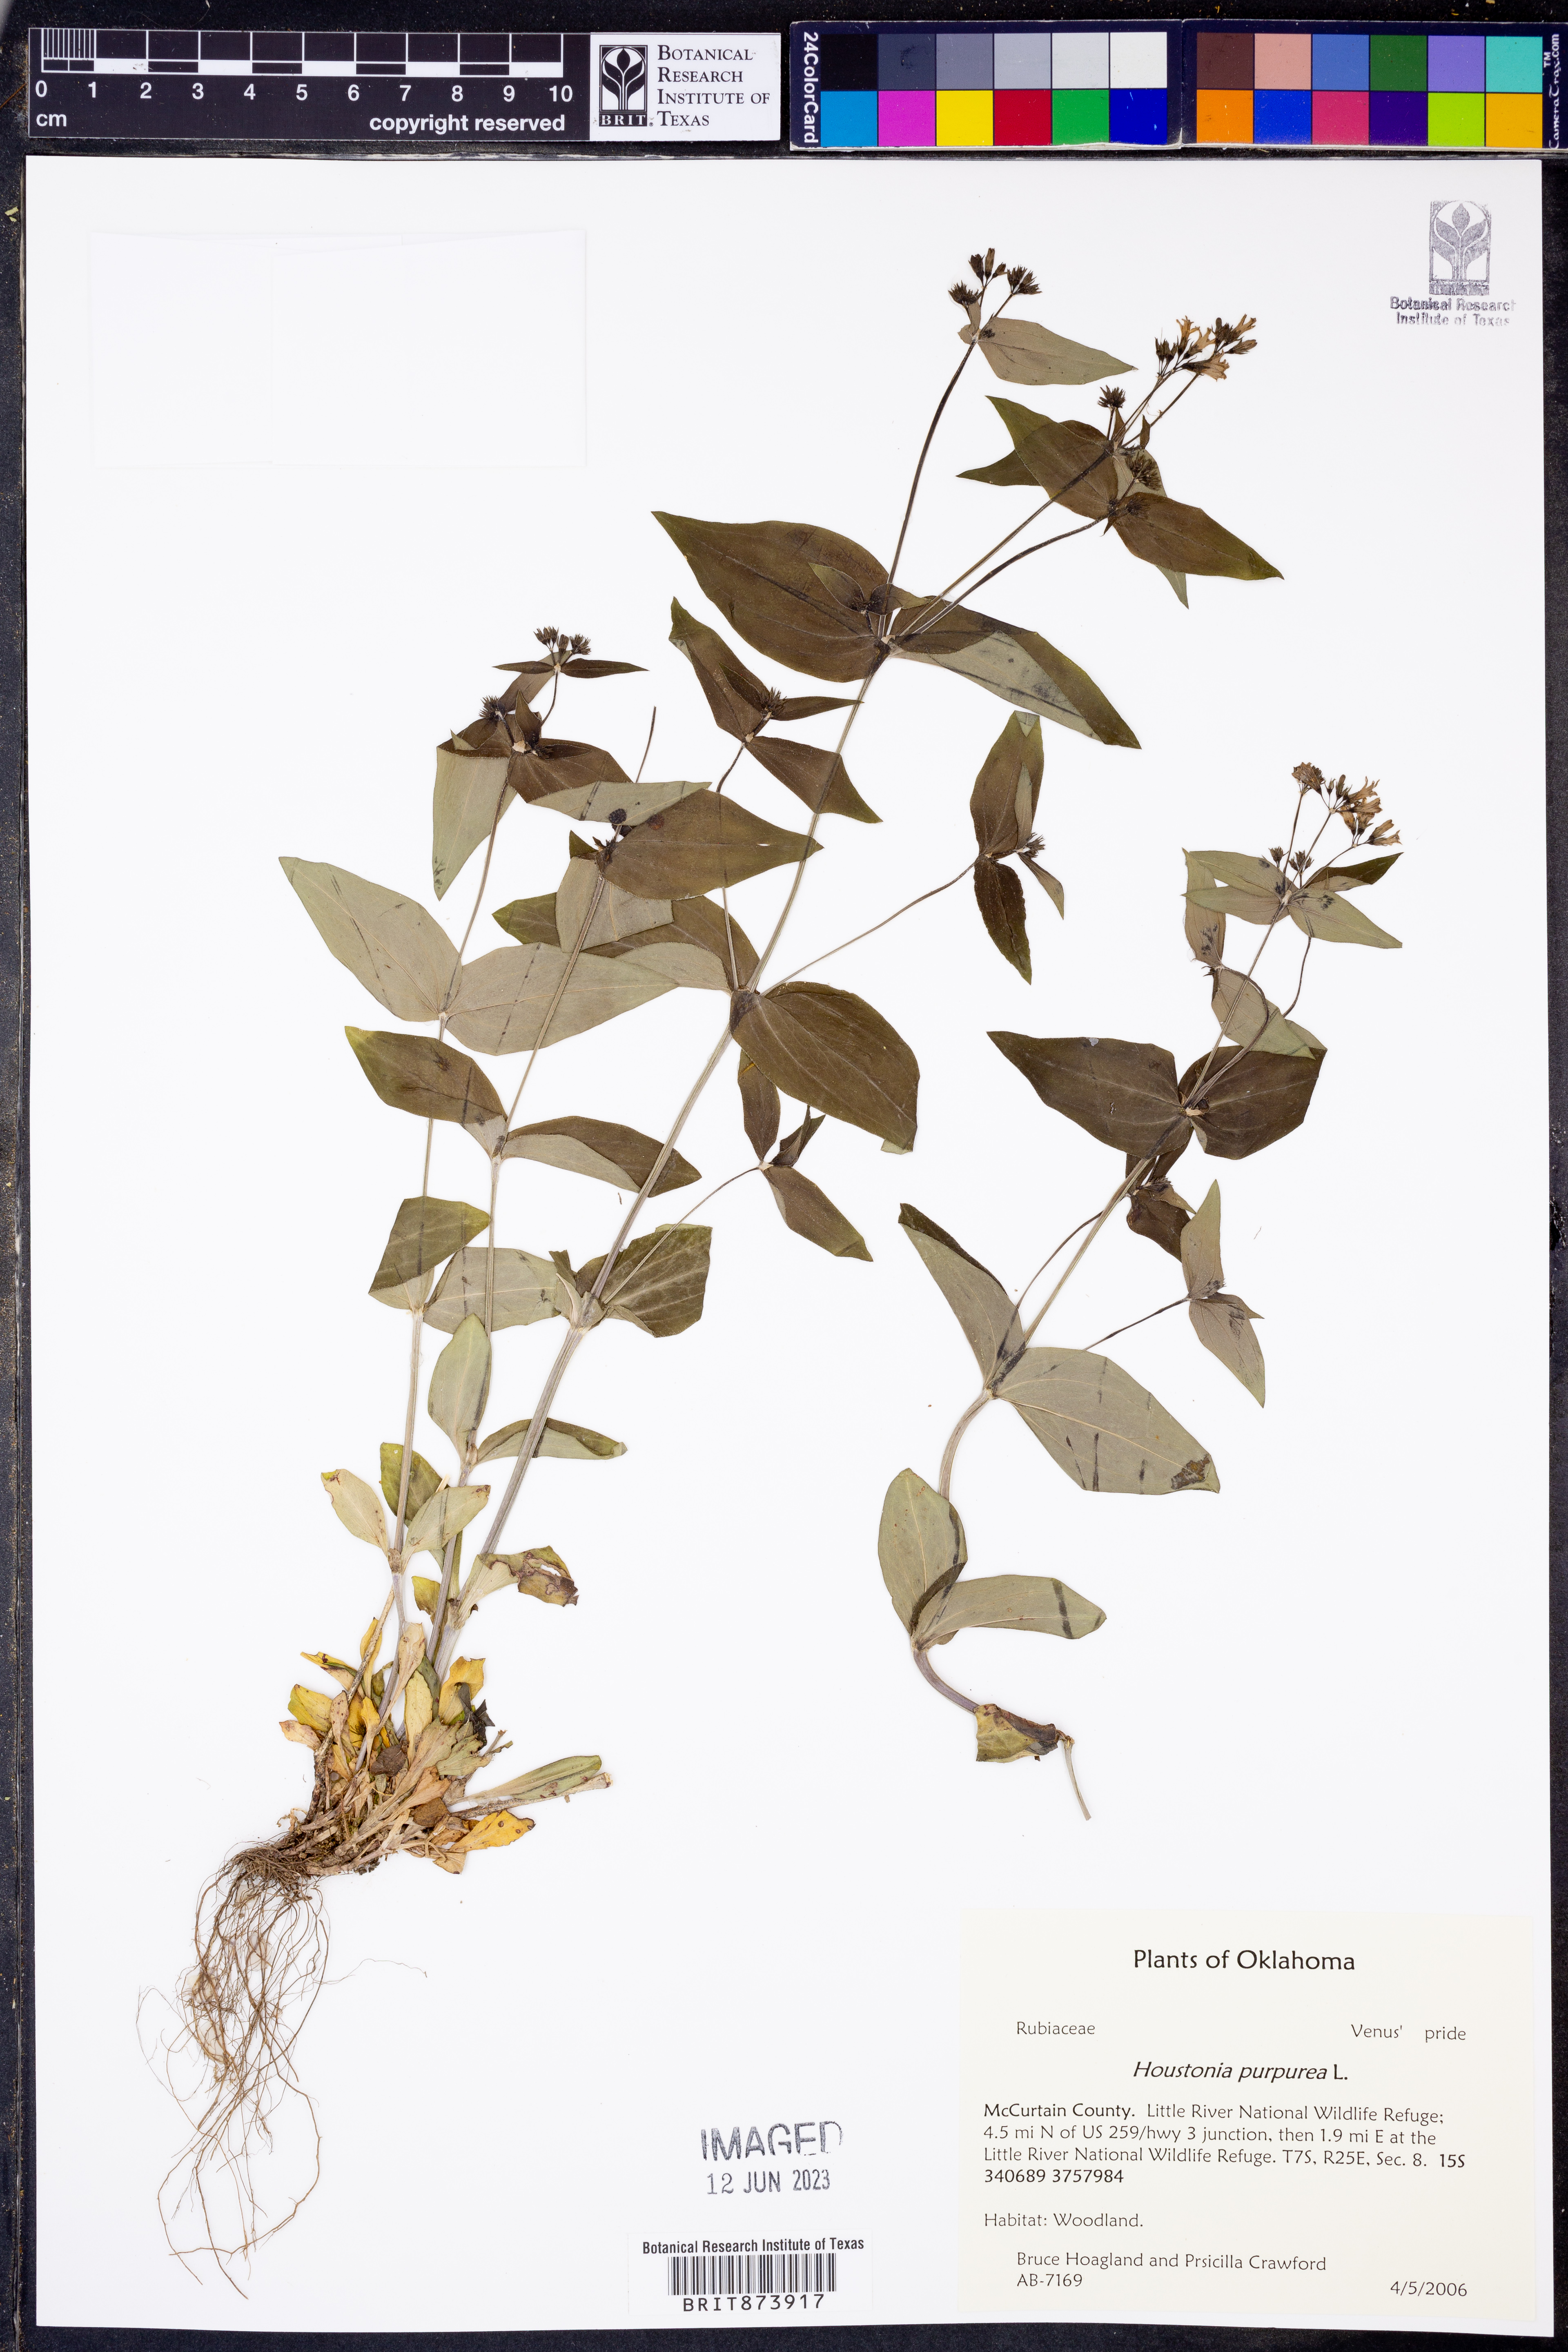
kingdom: Plantae
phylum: Tracheophyta
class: Magnoliopsida
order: Gentianales
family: Rubiaceae
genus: Houstonia
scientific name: Houstonia purpurea
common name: Summer bluet
